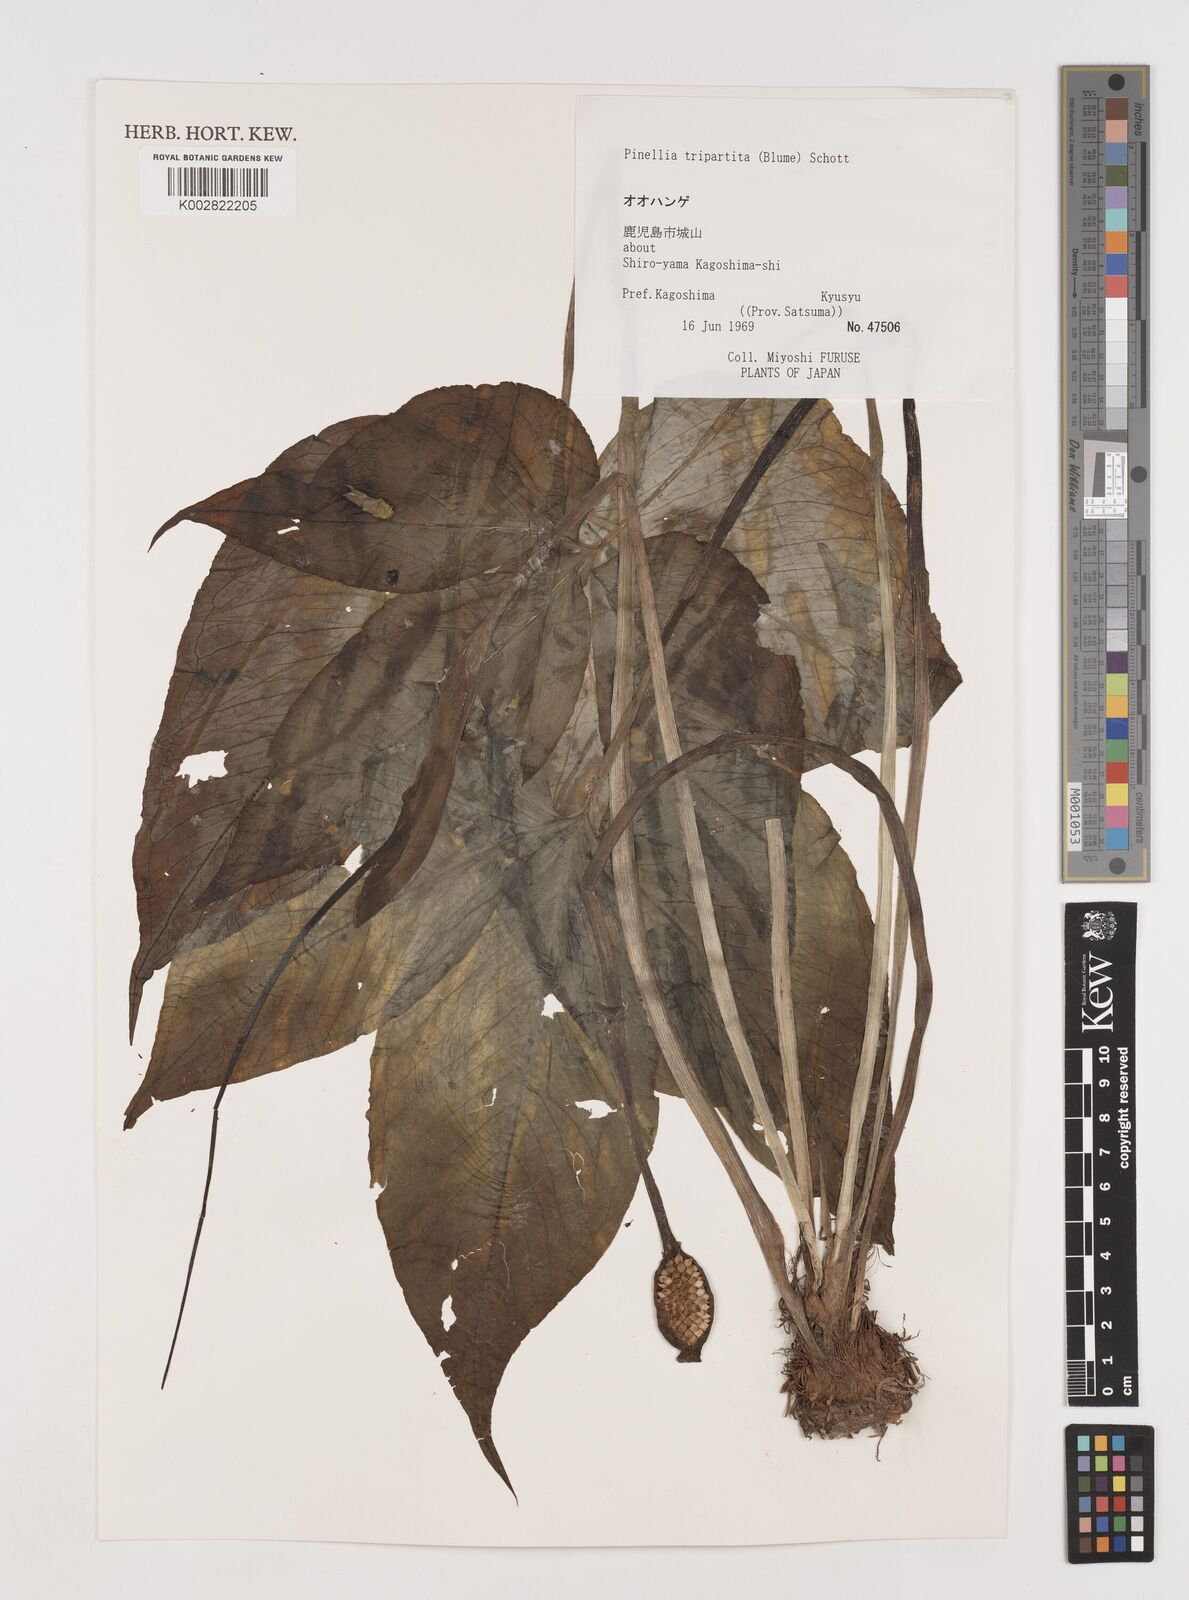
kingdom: Plantae
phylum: Tracheophyta
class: Liliopsida
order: Alismatales
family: Araceae
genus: Pinellia
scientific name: Pinellia tripartita
